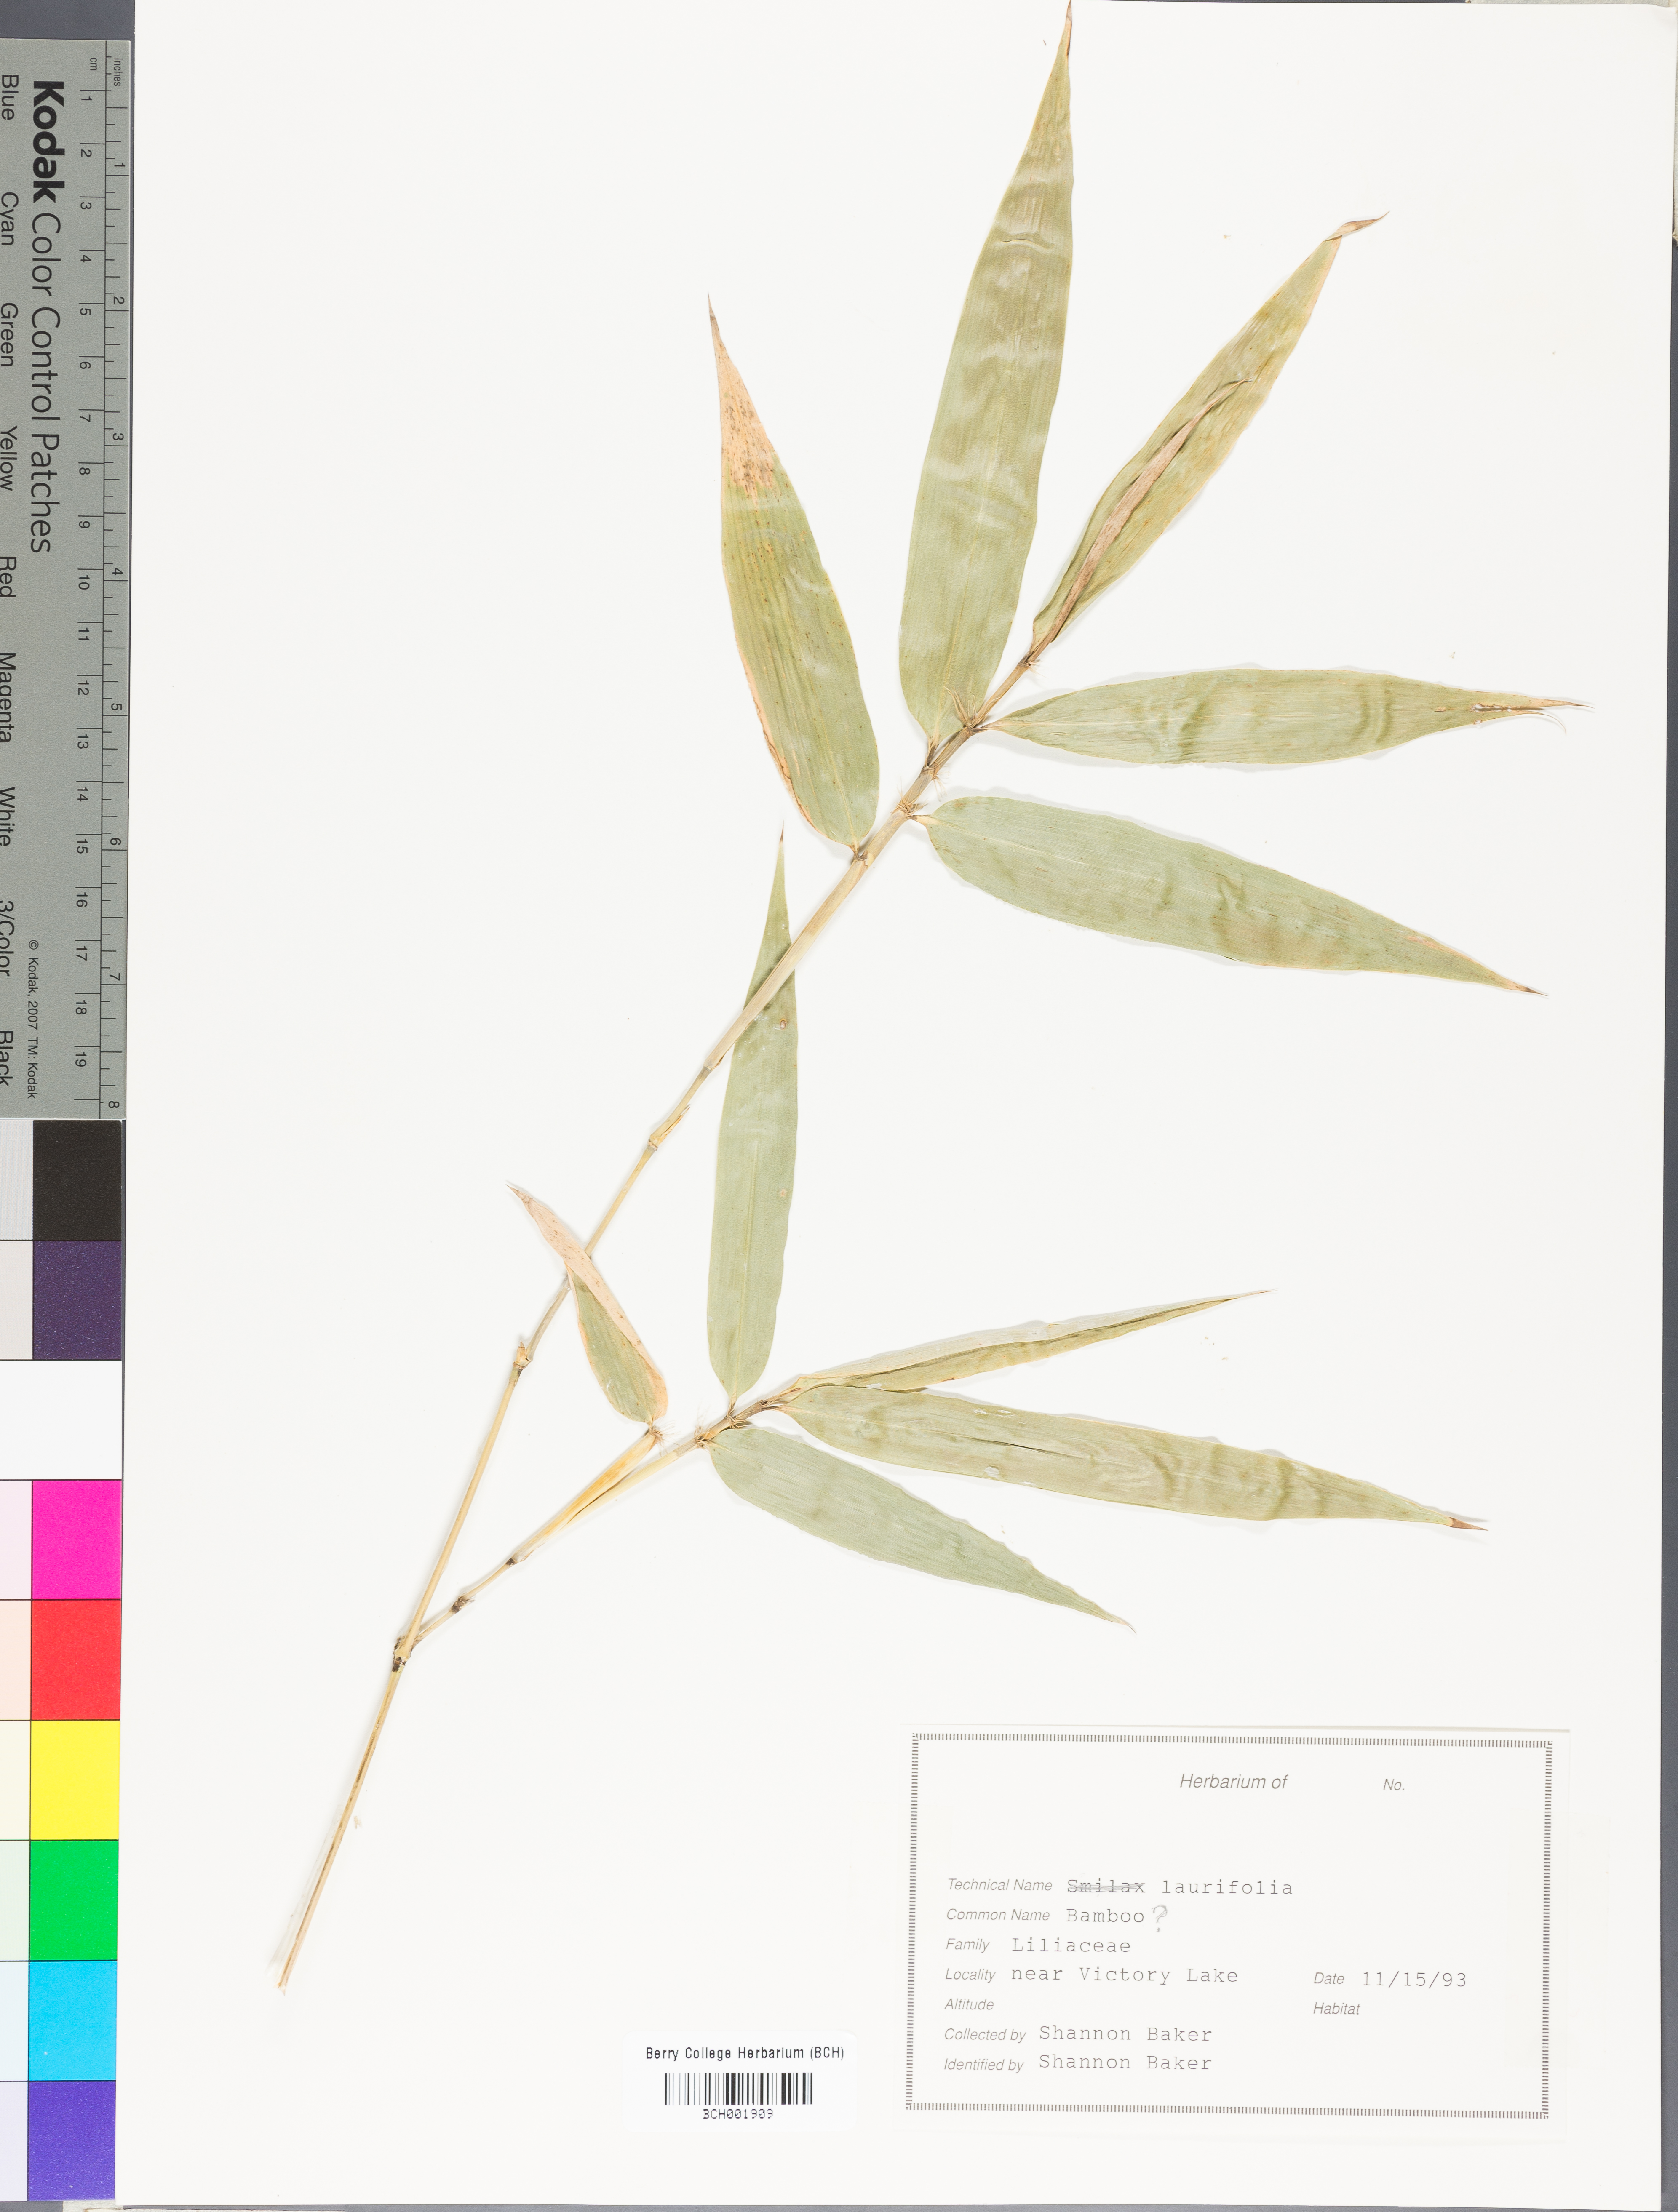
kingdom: Plantae
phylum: Tracheophyta
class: Liliopsida
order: Liliales
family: Smilacaceae
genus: Smilax
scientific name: Smilax laurifolia
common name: Bamboovine
